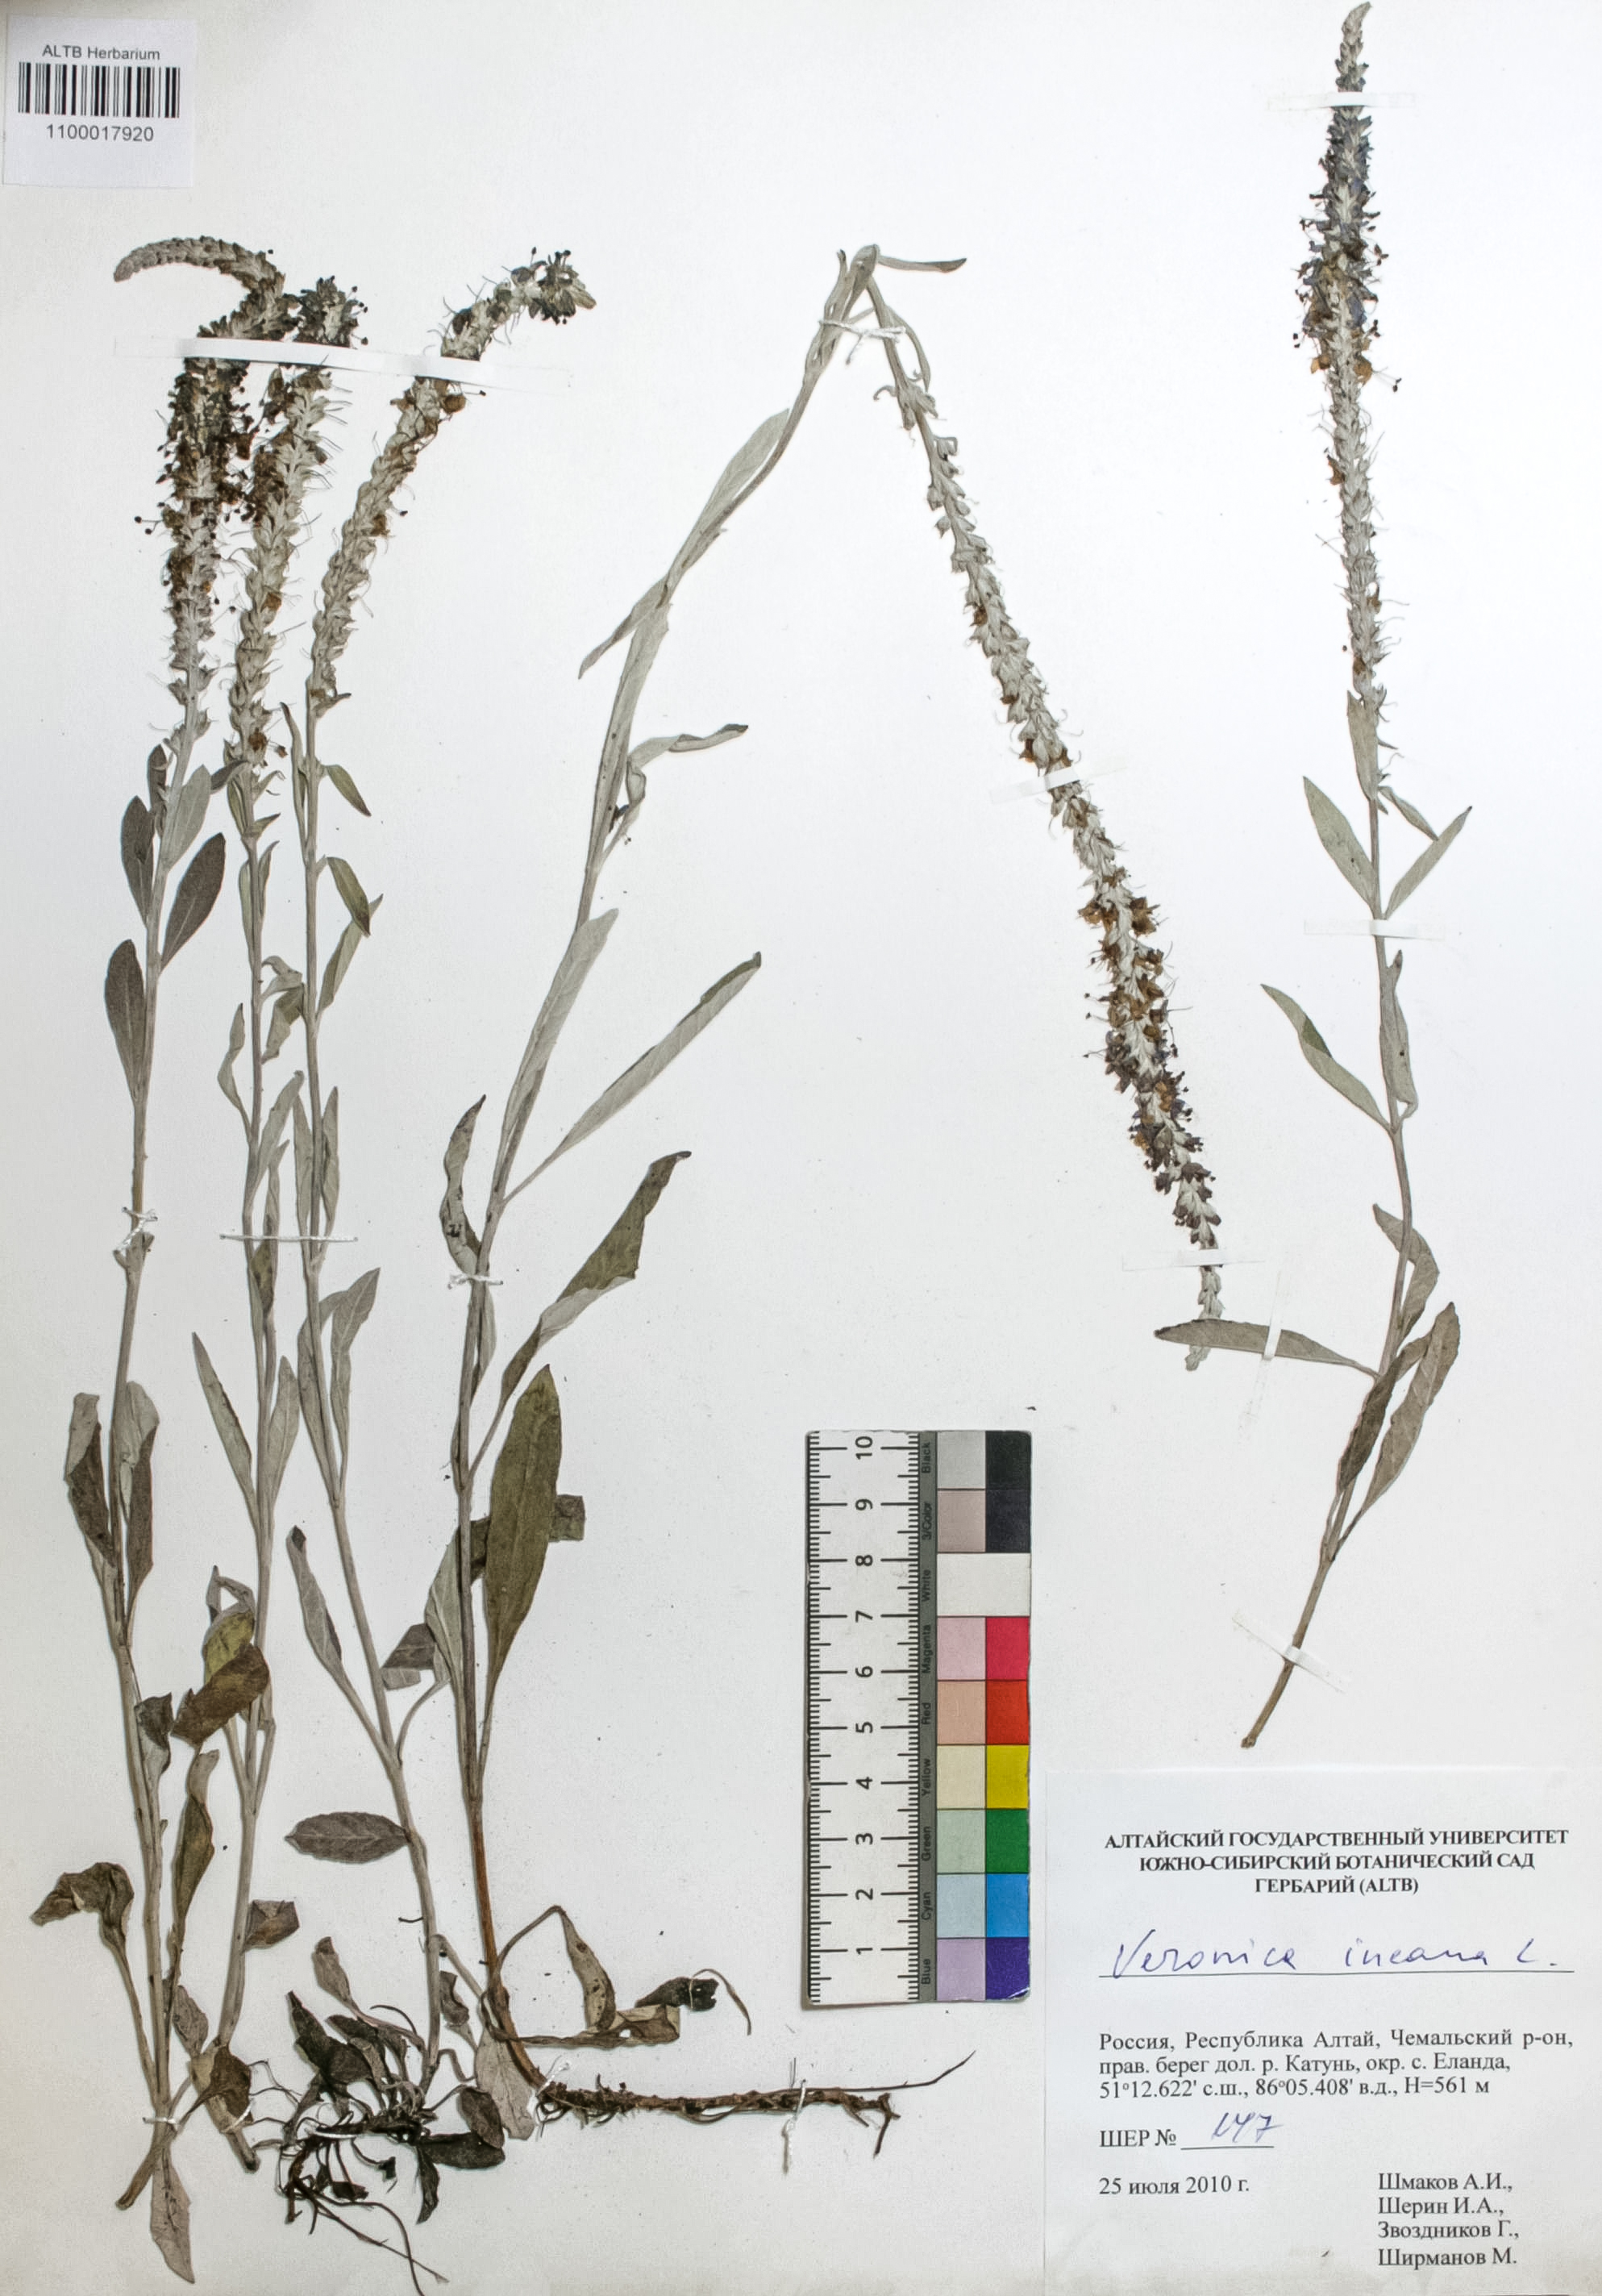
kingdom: Plantae
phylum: Tracheophyta
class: Magnoliopsida
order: Lamiales
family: Plantaginaceae
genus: Veronica
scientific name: Veronica incana
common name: Silver speedwell
